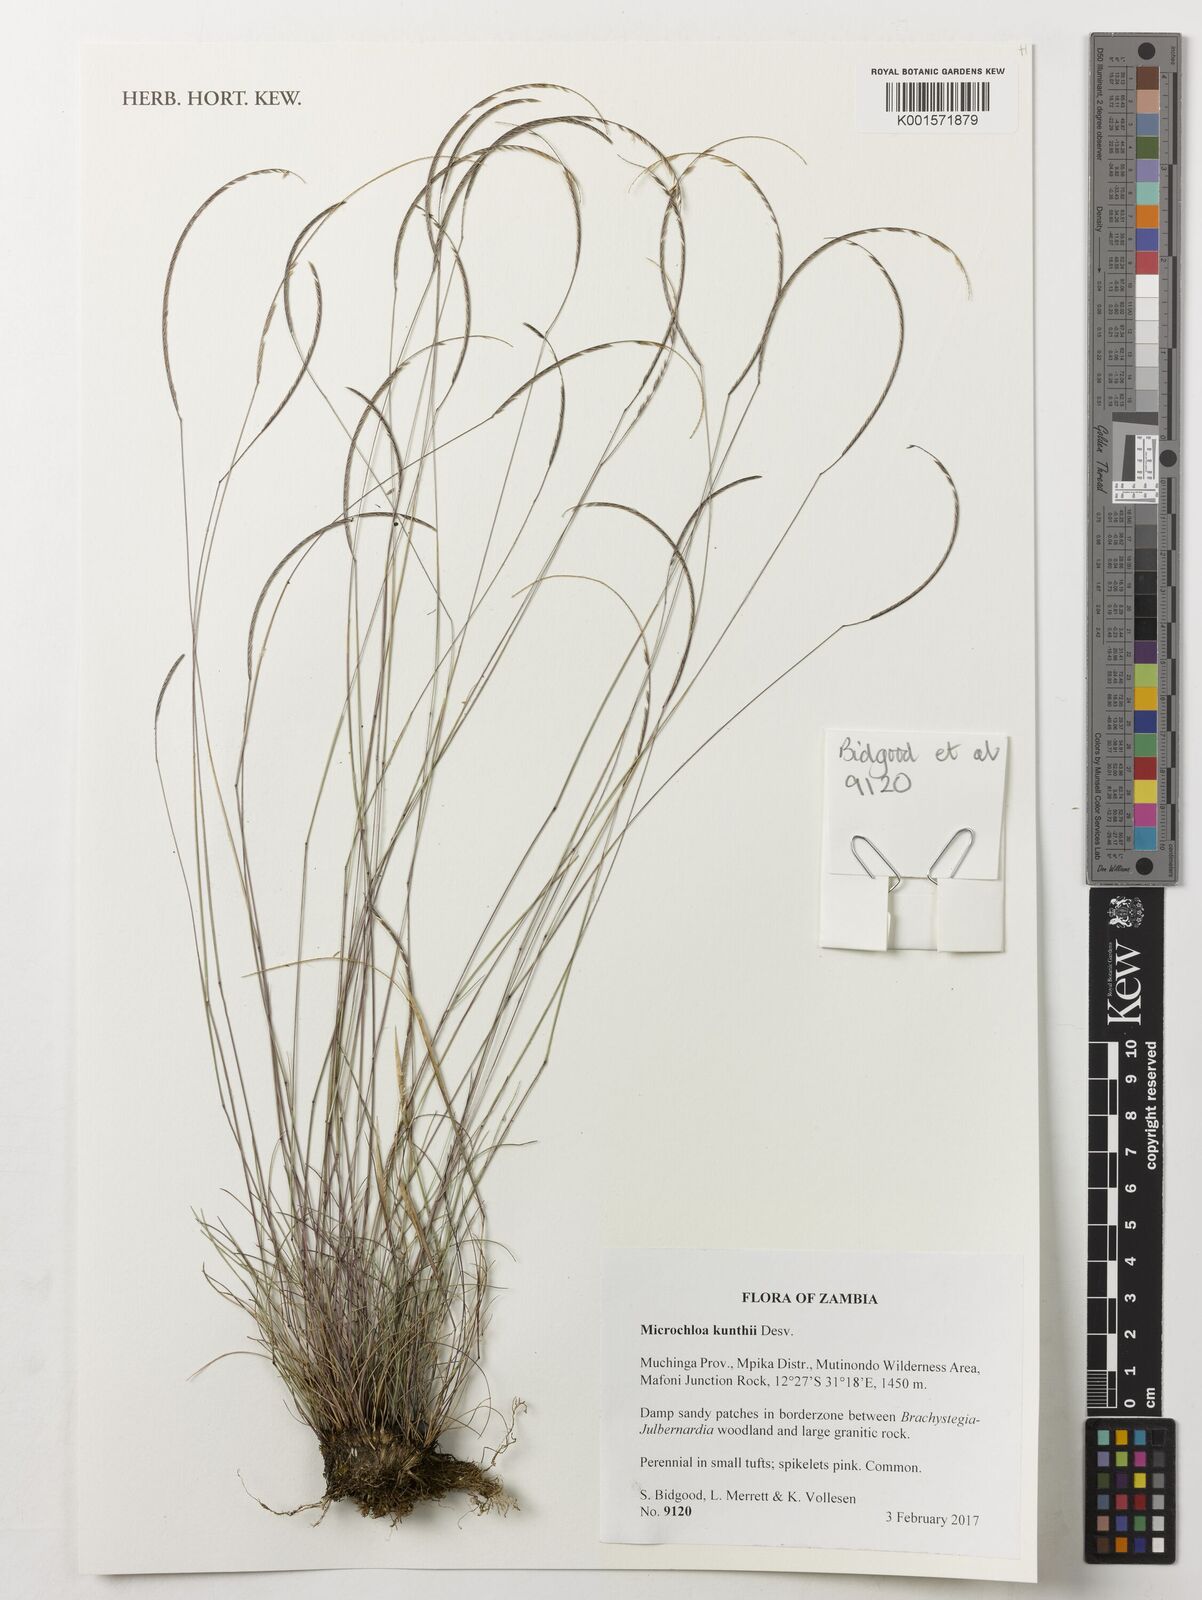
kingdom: Plantae
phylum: Tracheophyta
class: Liliopsida
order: Poales
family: Poaceae
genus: Microchloa
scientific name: Microchloa kunthii
